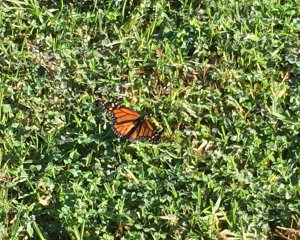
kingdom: Animalia
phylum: Arthropoda
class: Insecta
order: Lepidoptera
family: Nymphalidae
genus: Danaus
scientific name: Danaus plexippus
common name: Monarch
